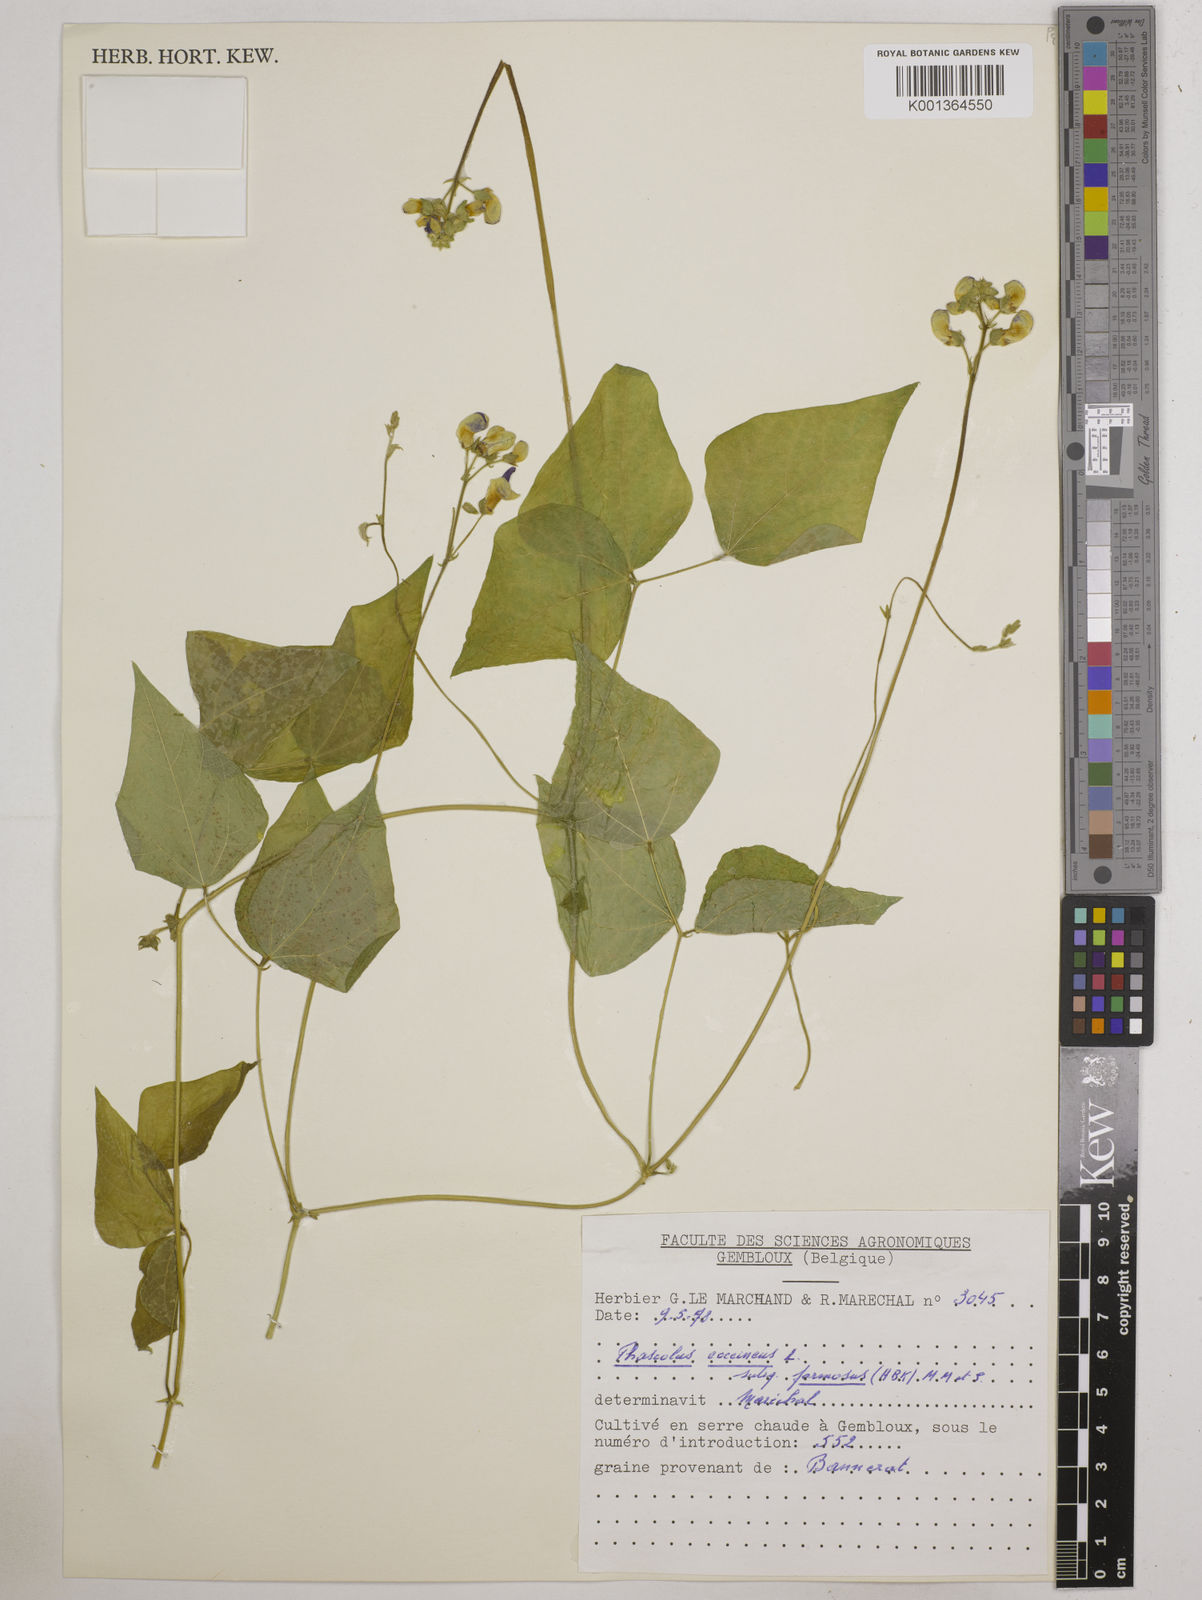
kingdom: Plantae
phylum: Tracheophyta
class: Magnoliopsida
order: Fabales
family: Fabaceae
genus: Phaseolus
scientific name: Phaseolus coccineus
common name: Runner bean
